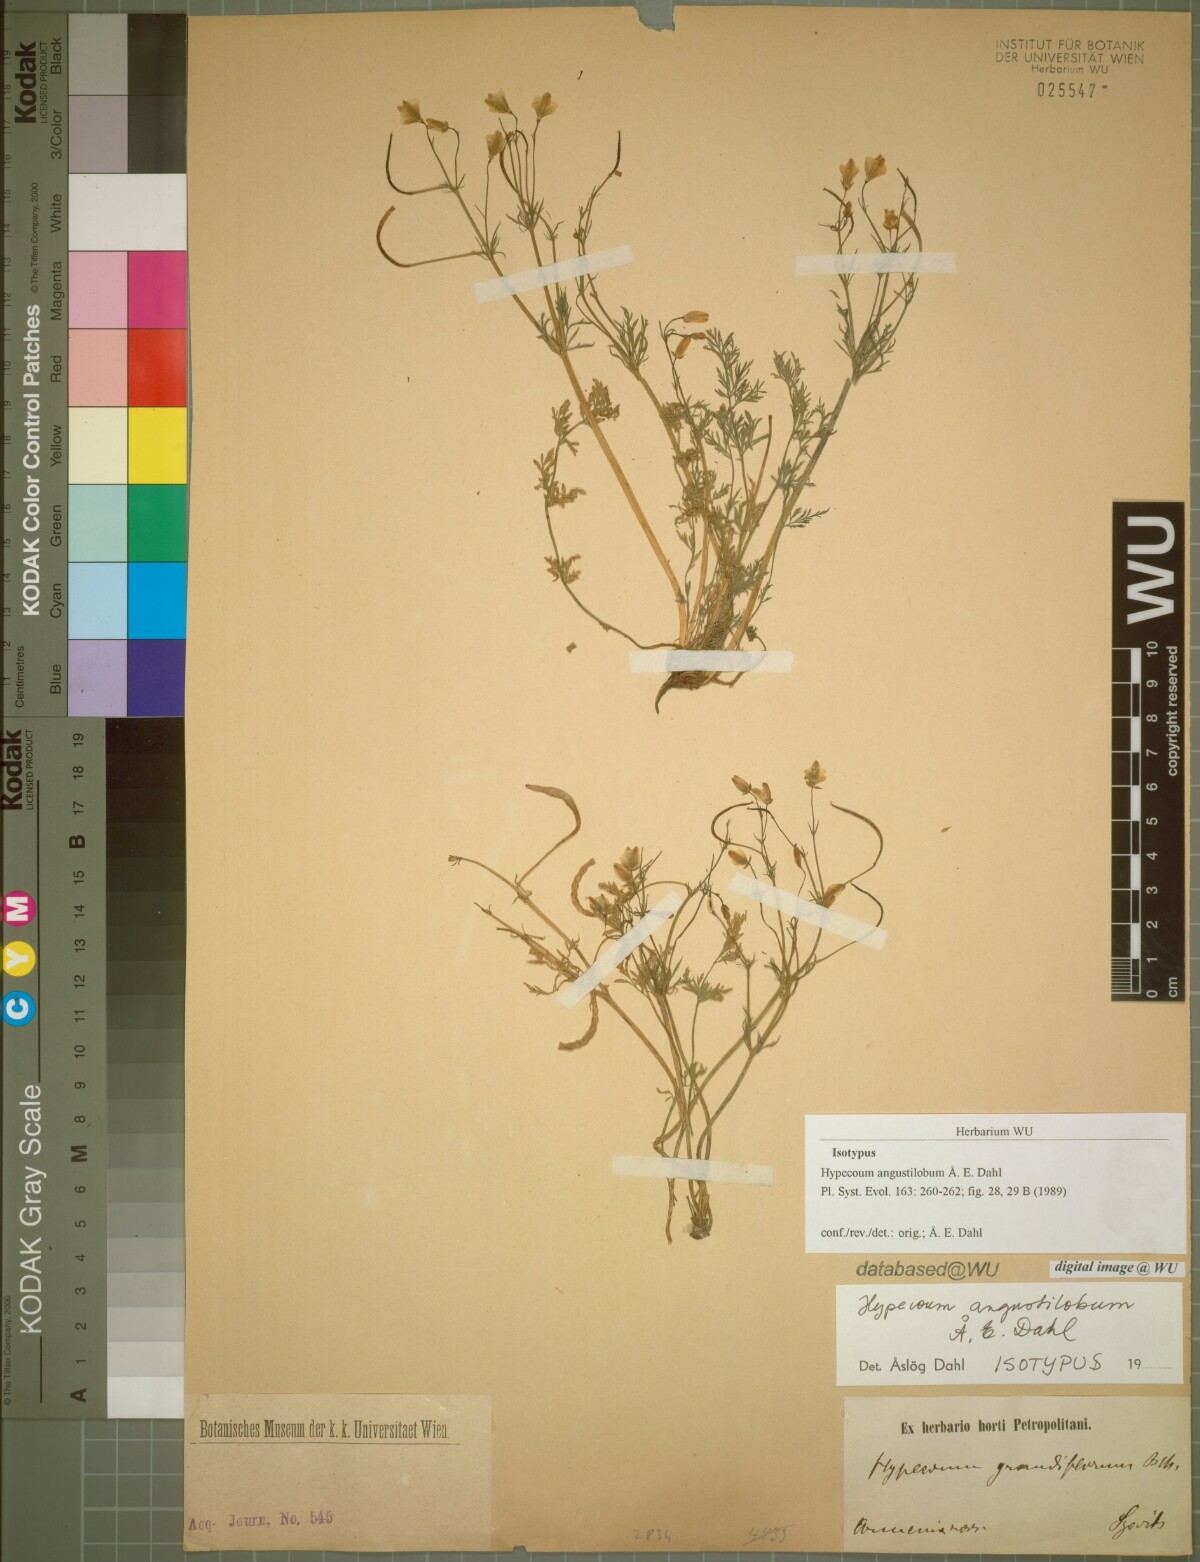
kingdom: Plantae
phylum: Tracheophyta
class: Magnoliopsida
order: Ranunculales
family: Papaveraceae
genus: Hypecoum
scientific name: Hypecoum angustilobum
